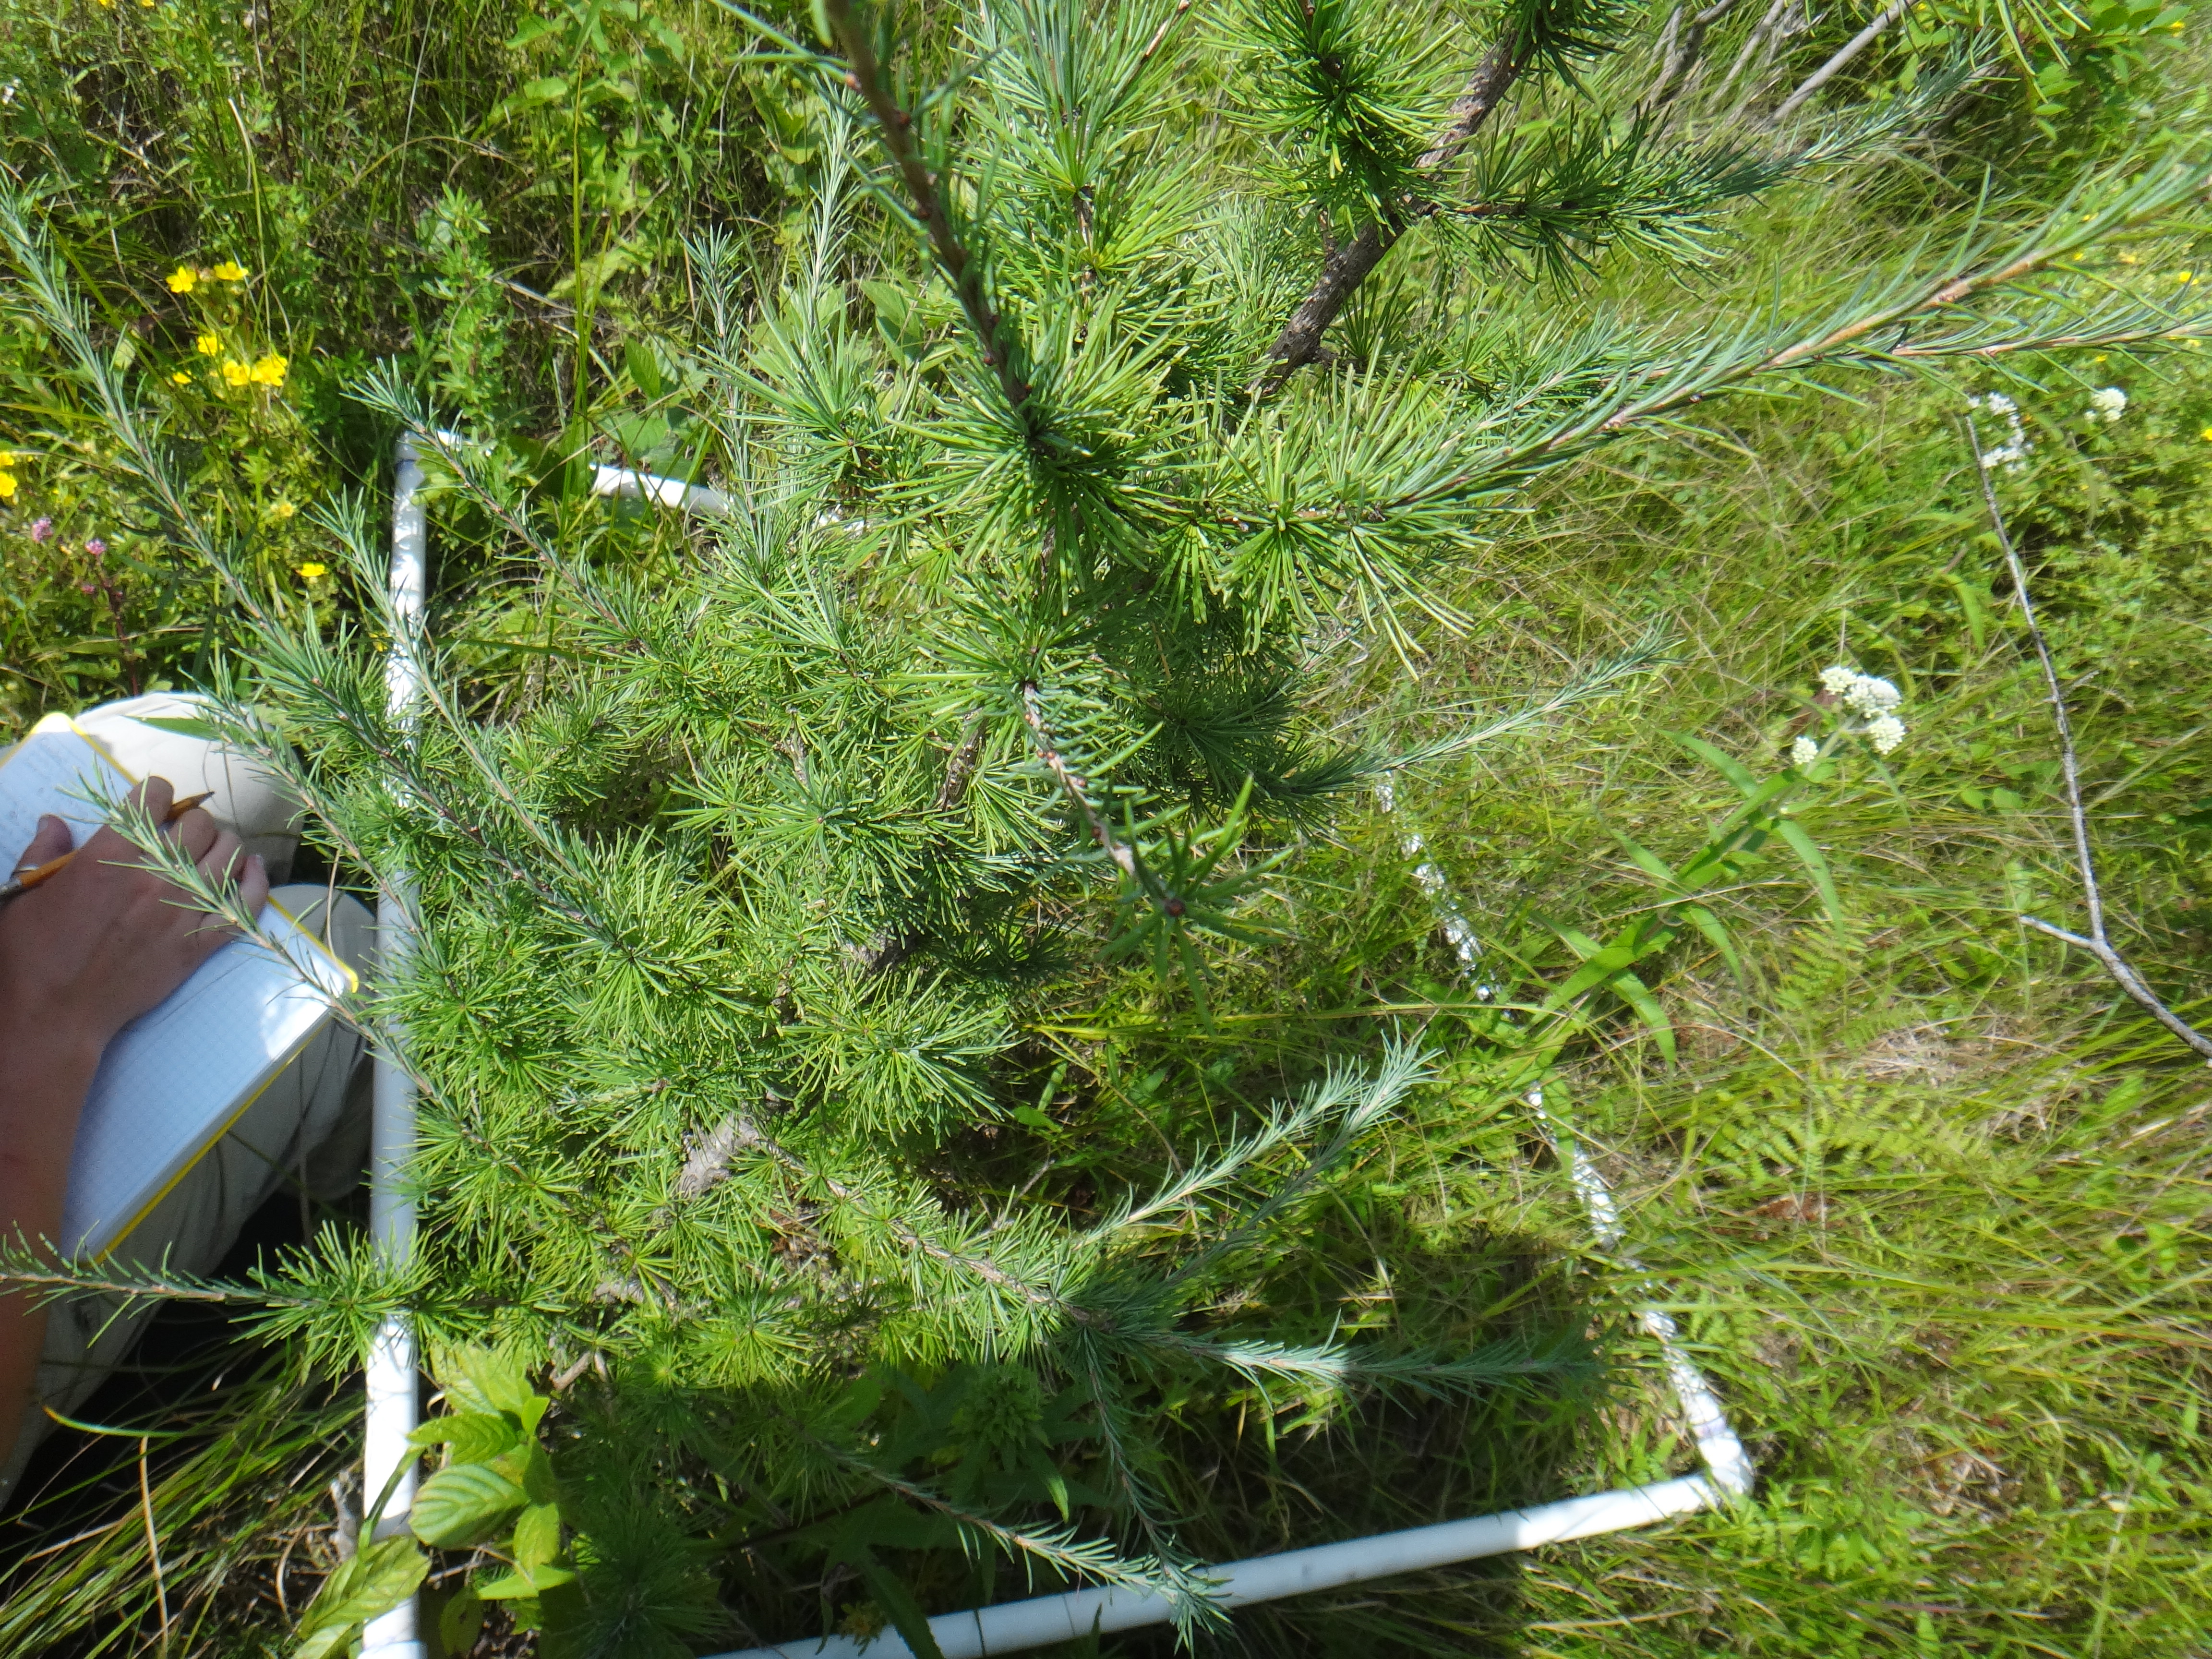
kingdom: Plantae
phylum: Tracheophyta
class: Magnoliopsida
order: Lamiales
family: Lamiaceae
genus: Lycopus
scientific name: Lycopus americanus
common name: American bugleweed
